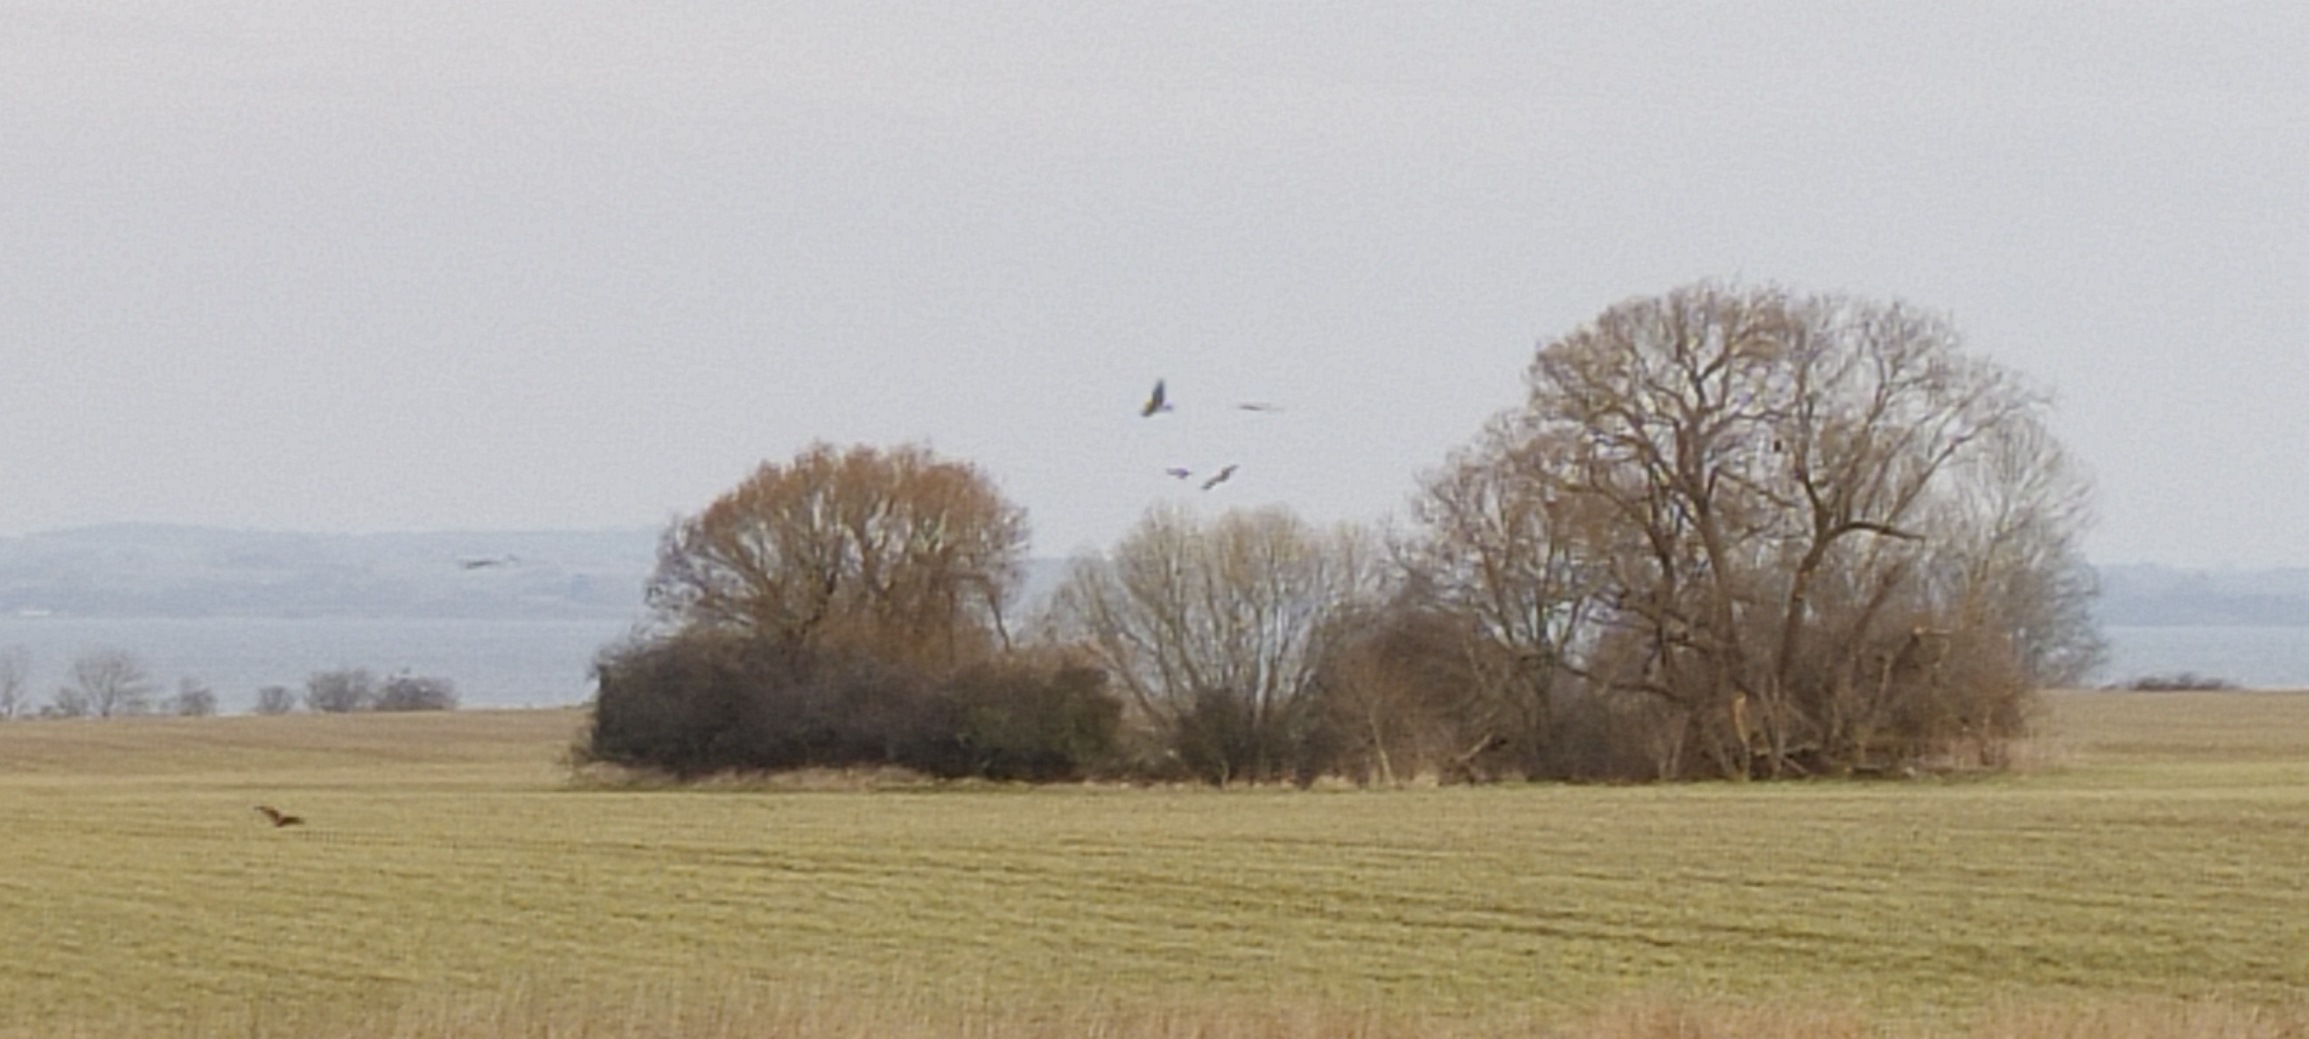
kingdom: Animalia
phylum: Chordata
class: Aves
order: Accipitriformes
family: Accipitridae
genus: Milvus
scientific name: Milvus milvus
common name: Rød glente
